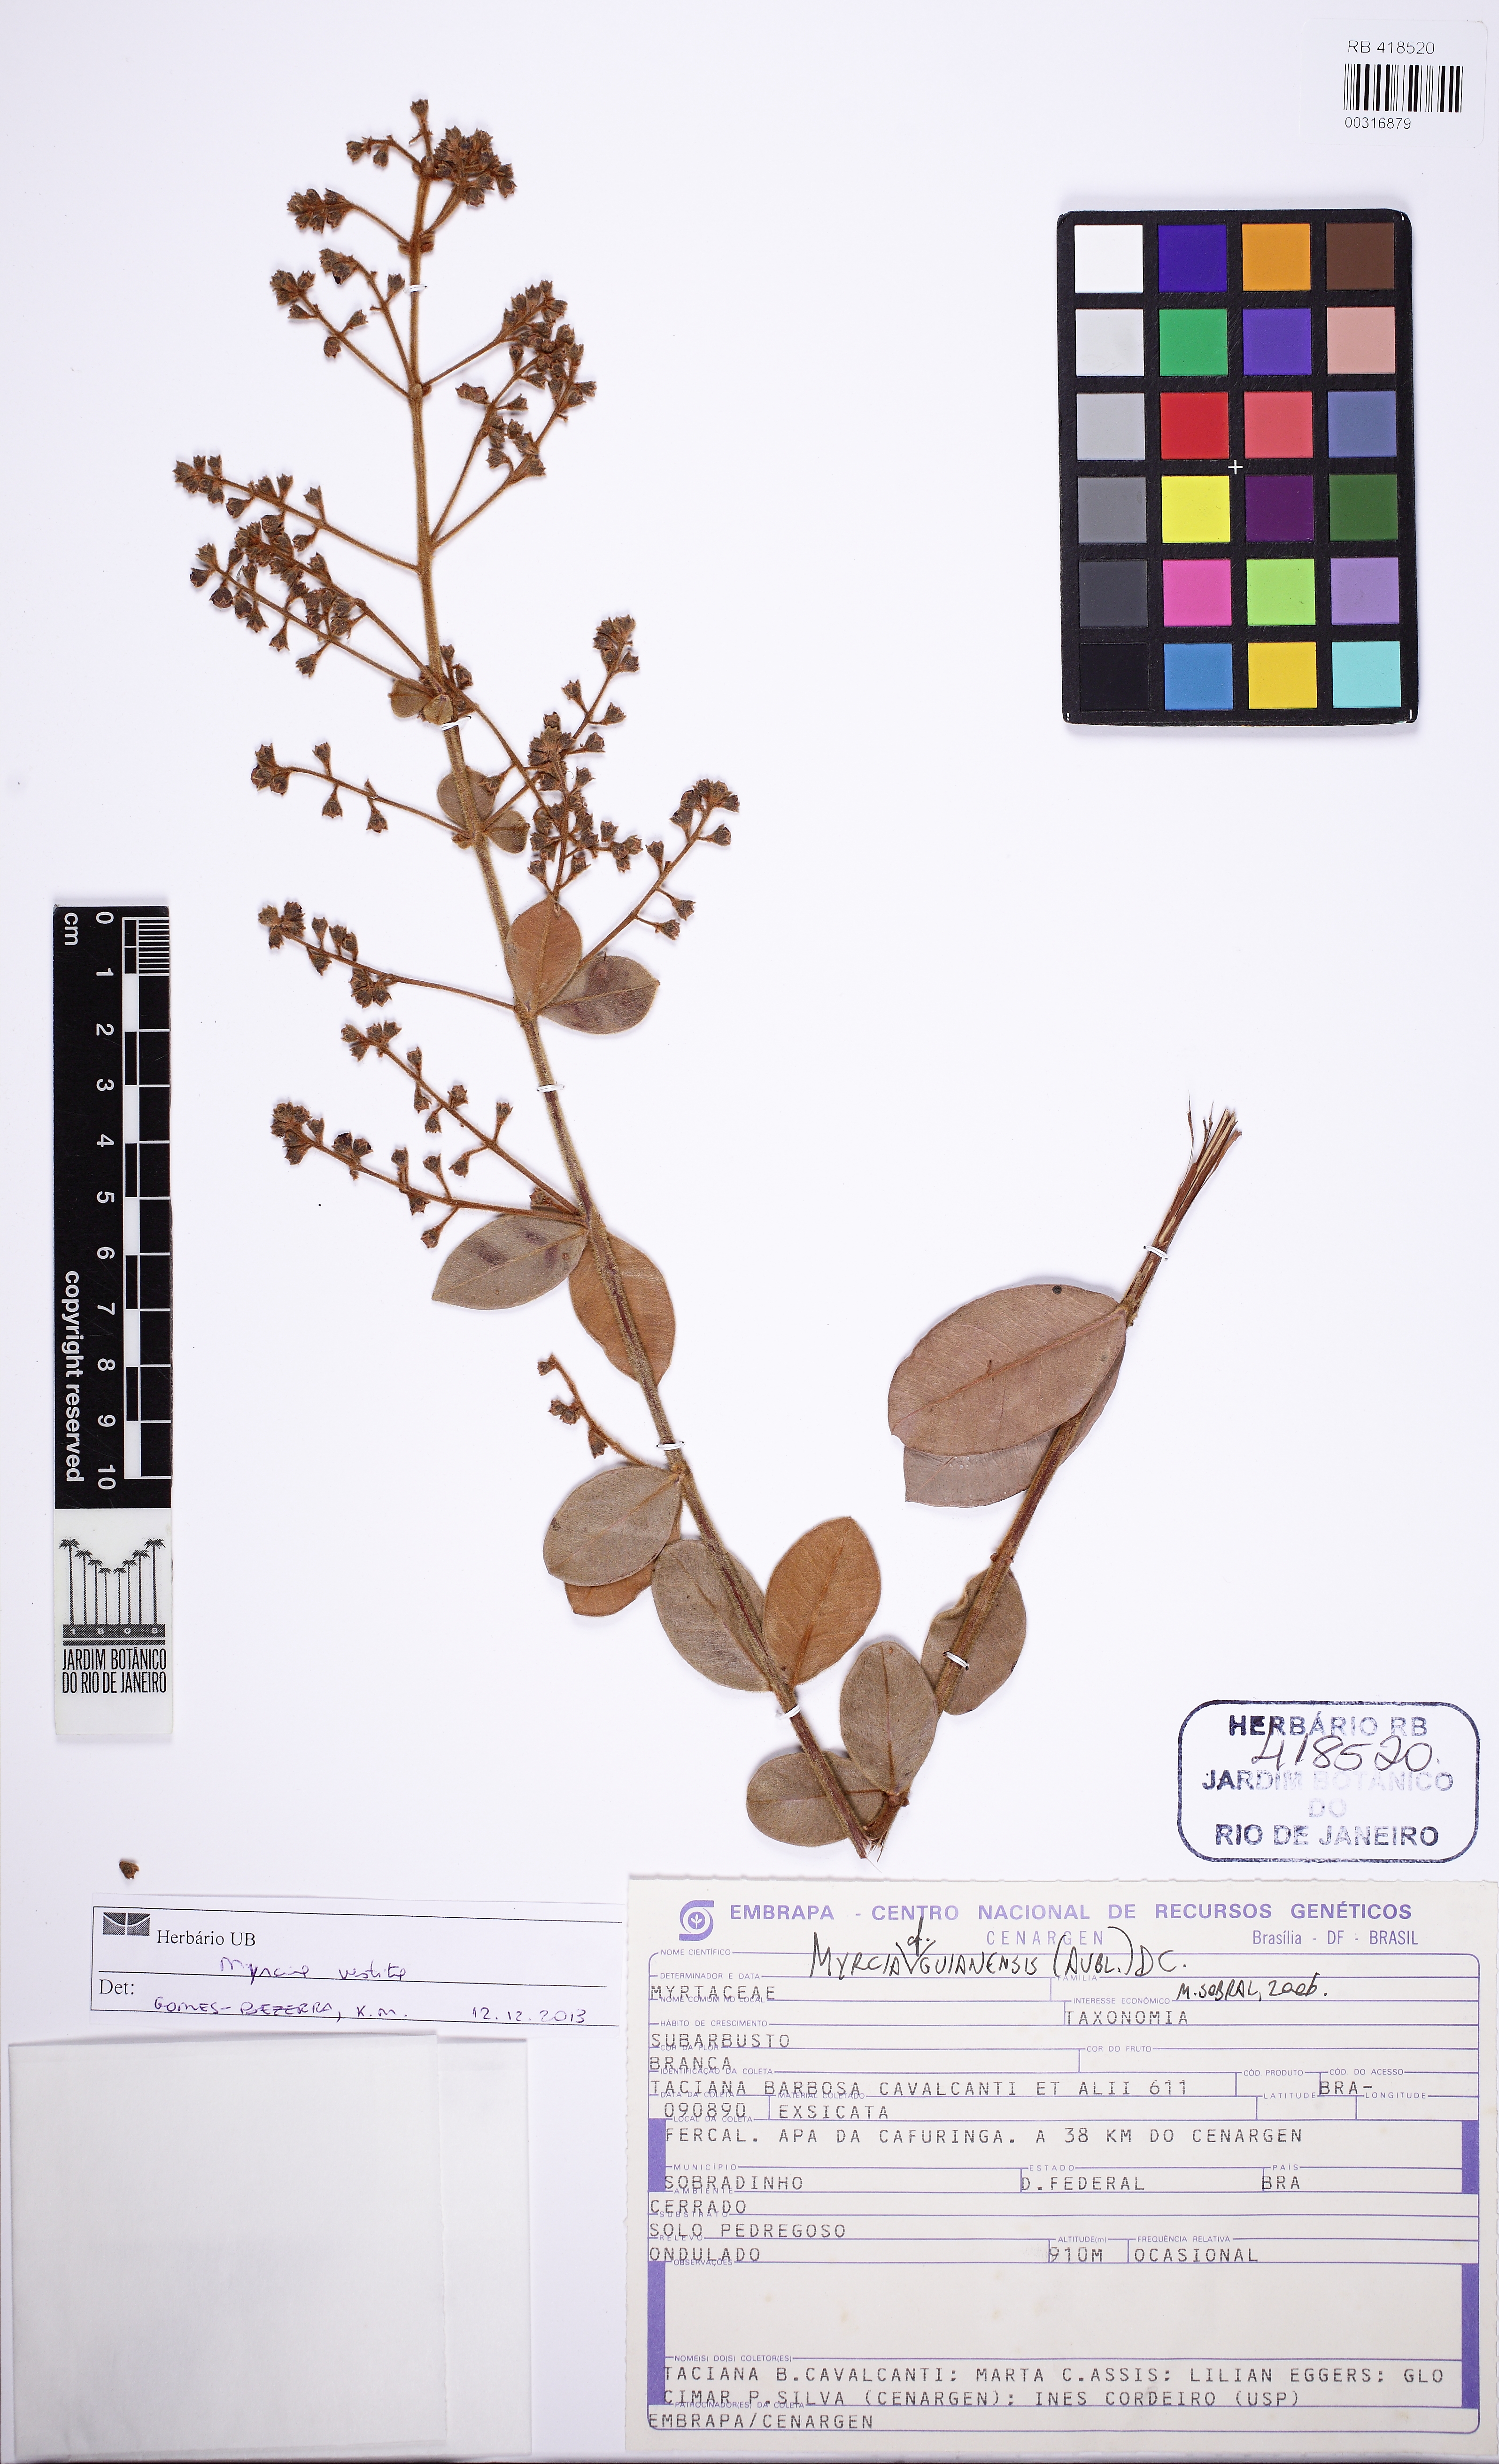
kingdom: Plantae
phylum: Tracheophyta
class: Magnoliopsida
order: Myrtales
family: Myrtaceae
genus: Myrcia
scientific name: Myrcia vestita
